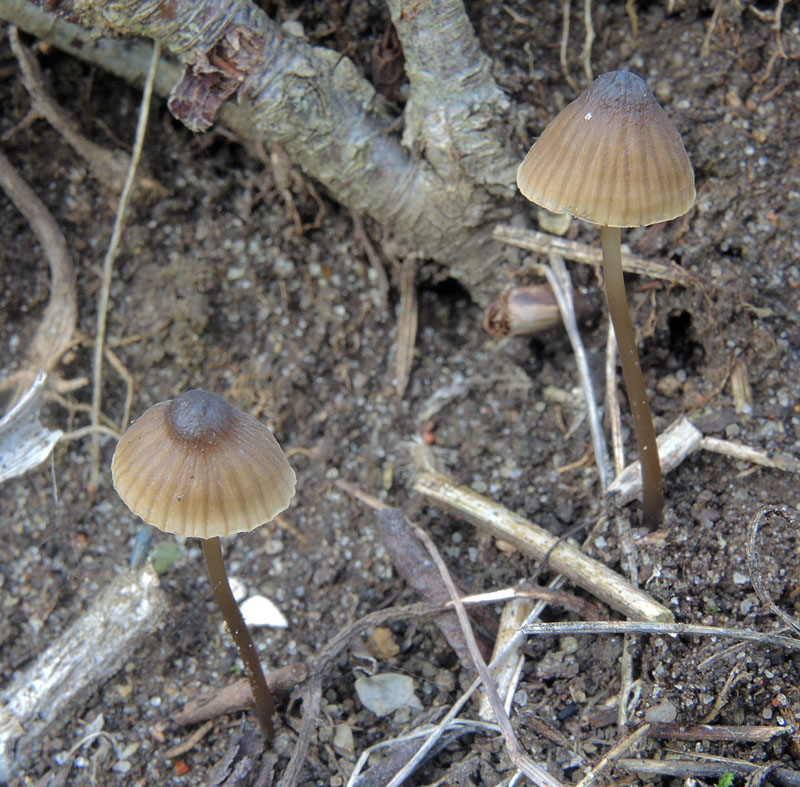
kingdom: Fungi
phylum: Basidiomycota
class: Agaricomycetes
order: Agaricales
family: Porotheleaceae
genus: Phloeomana
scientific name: Phloeomana atropapillata
